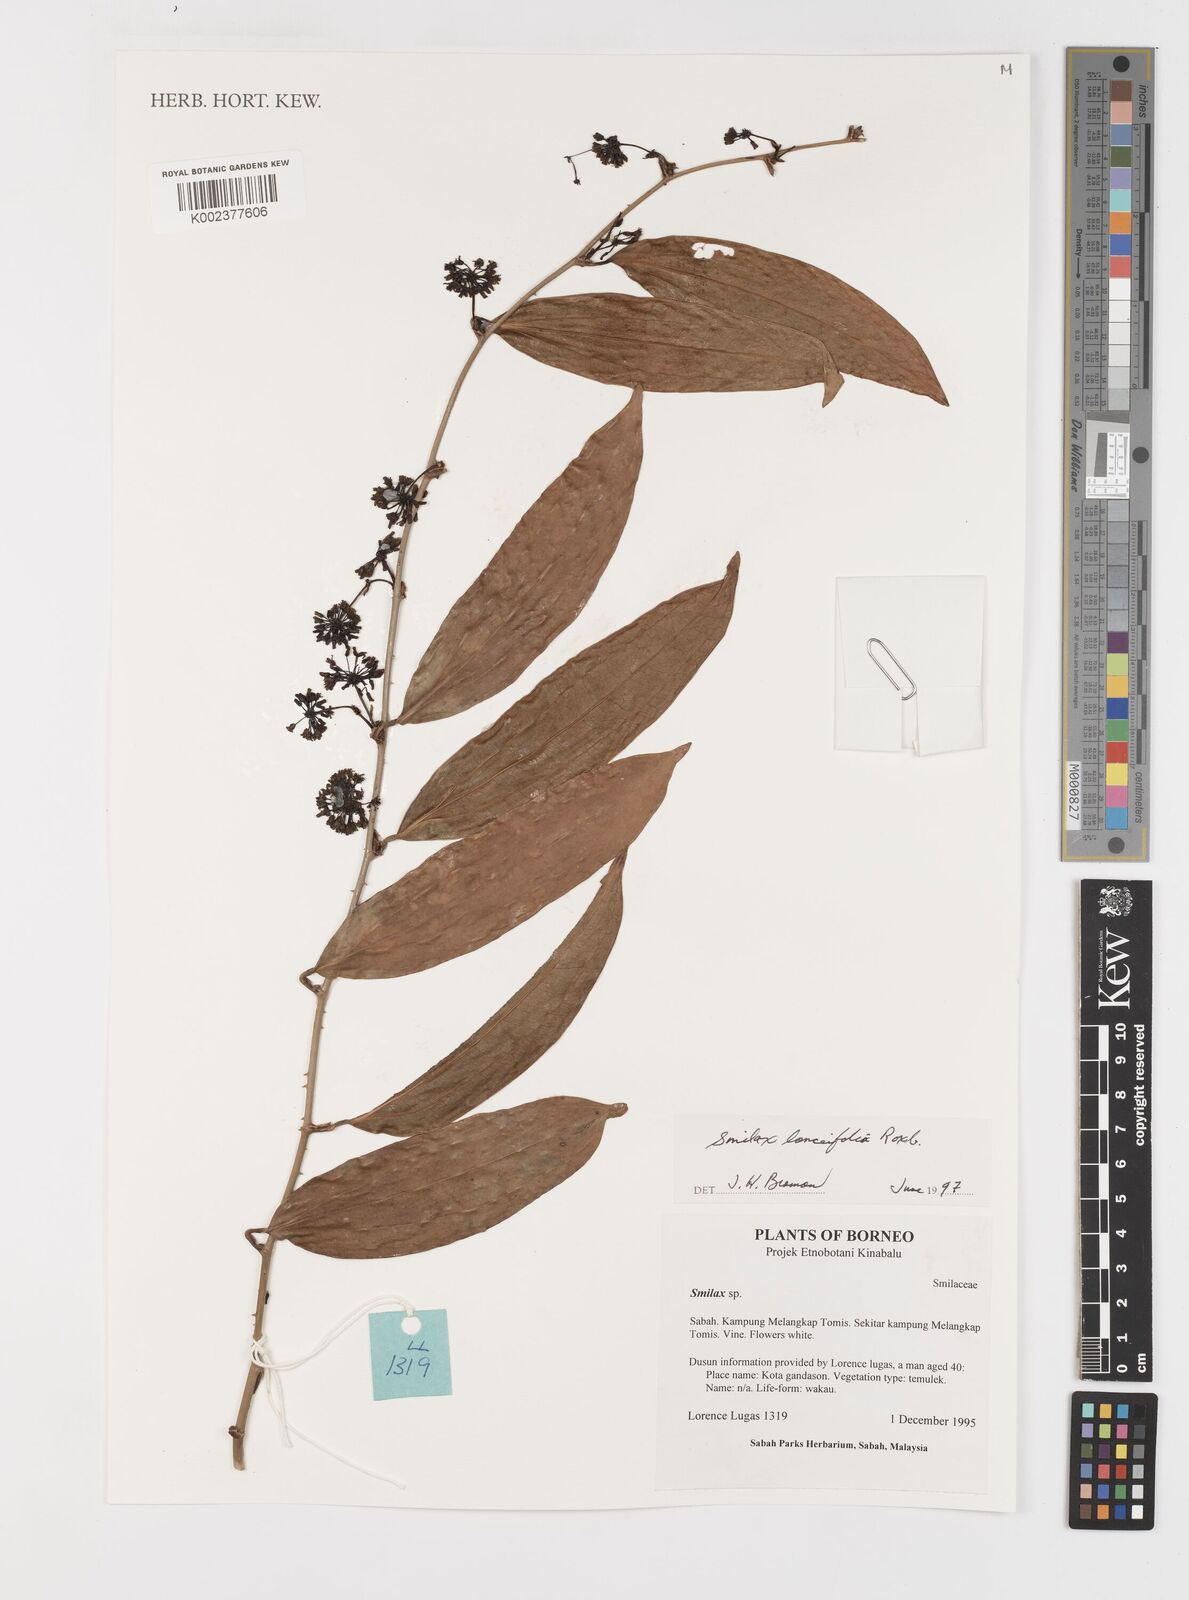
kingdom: Plantae
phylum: Tracheophyta
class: Liliopsida
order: Liliales
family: Smilacaceae
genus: Smilax
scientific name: Smilax lanceifolia
